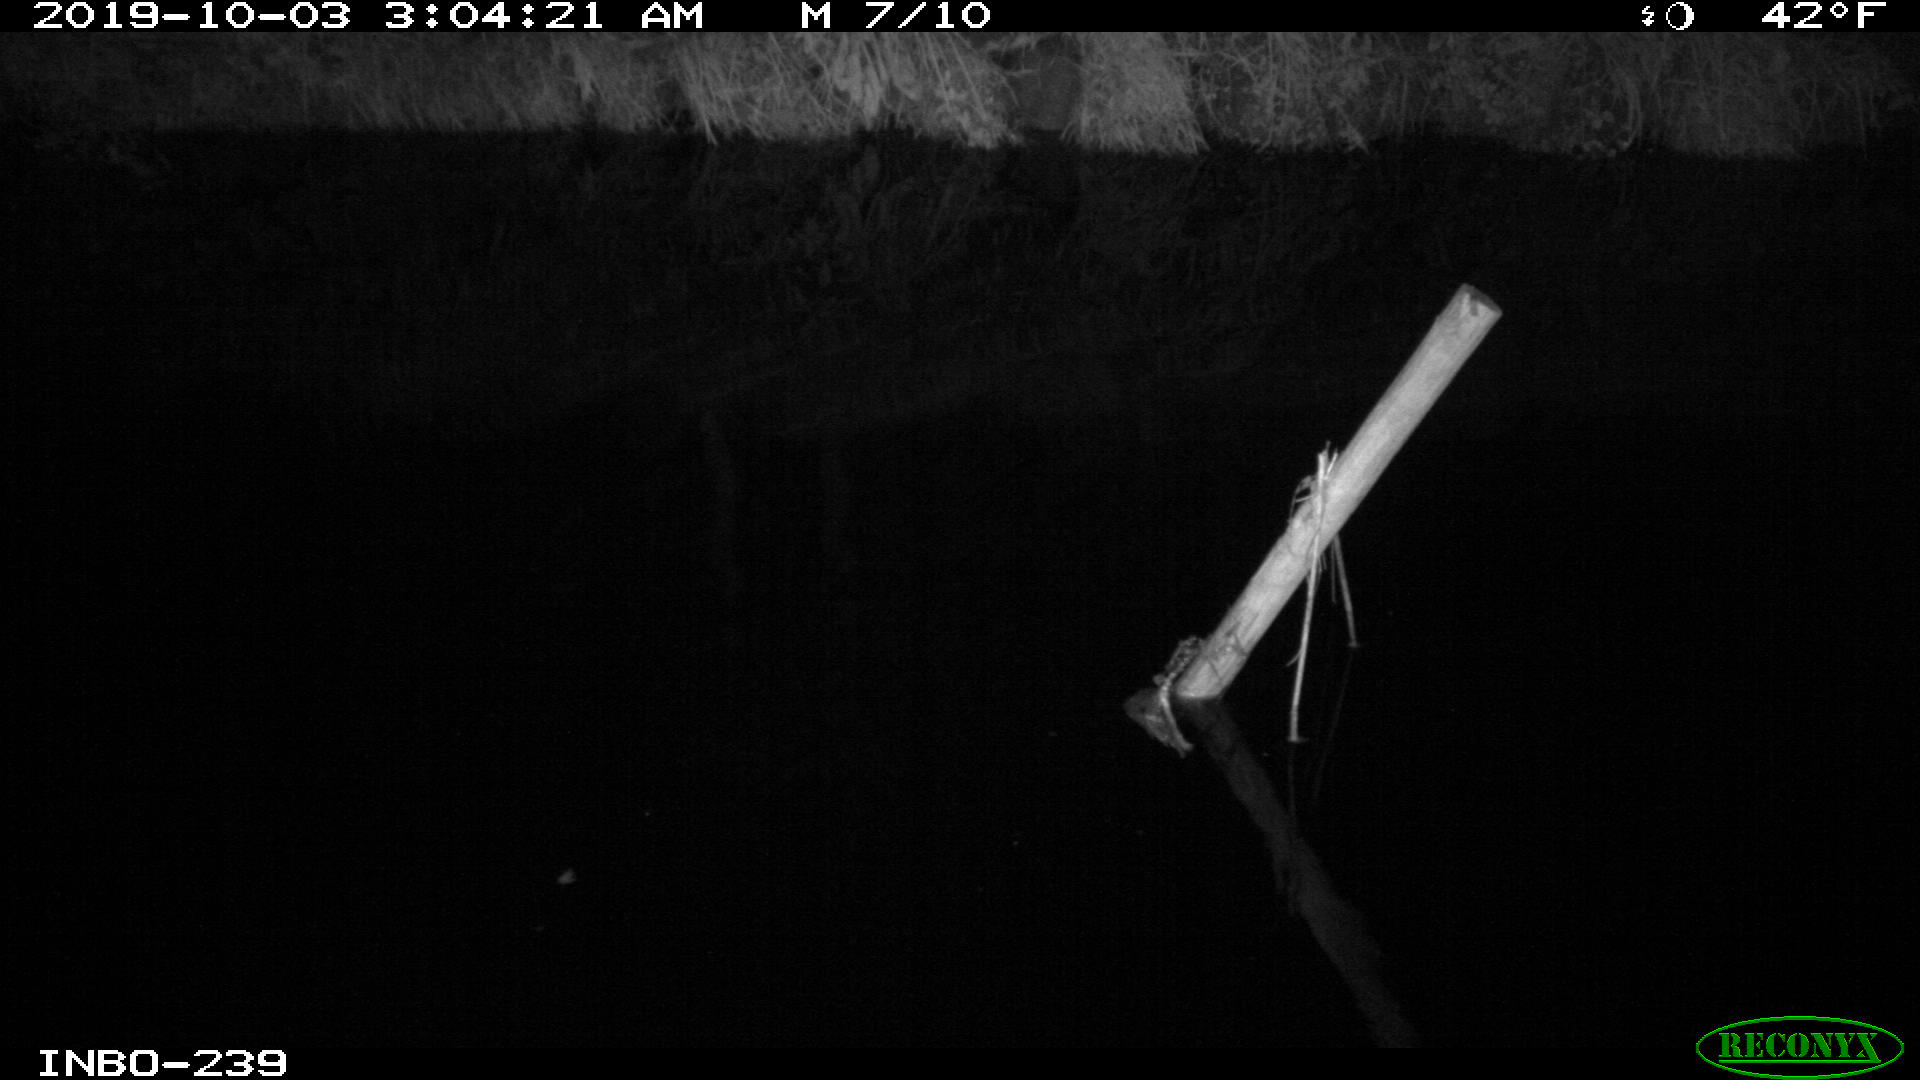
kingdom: Animalia
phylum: Chordata
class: Aves
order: Anseriformes
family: Anatidae
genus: Anas
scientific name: Anas platyrhynchos
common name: Mallard
